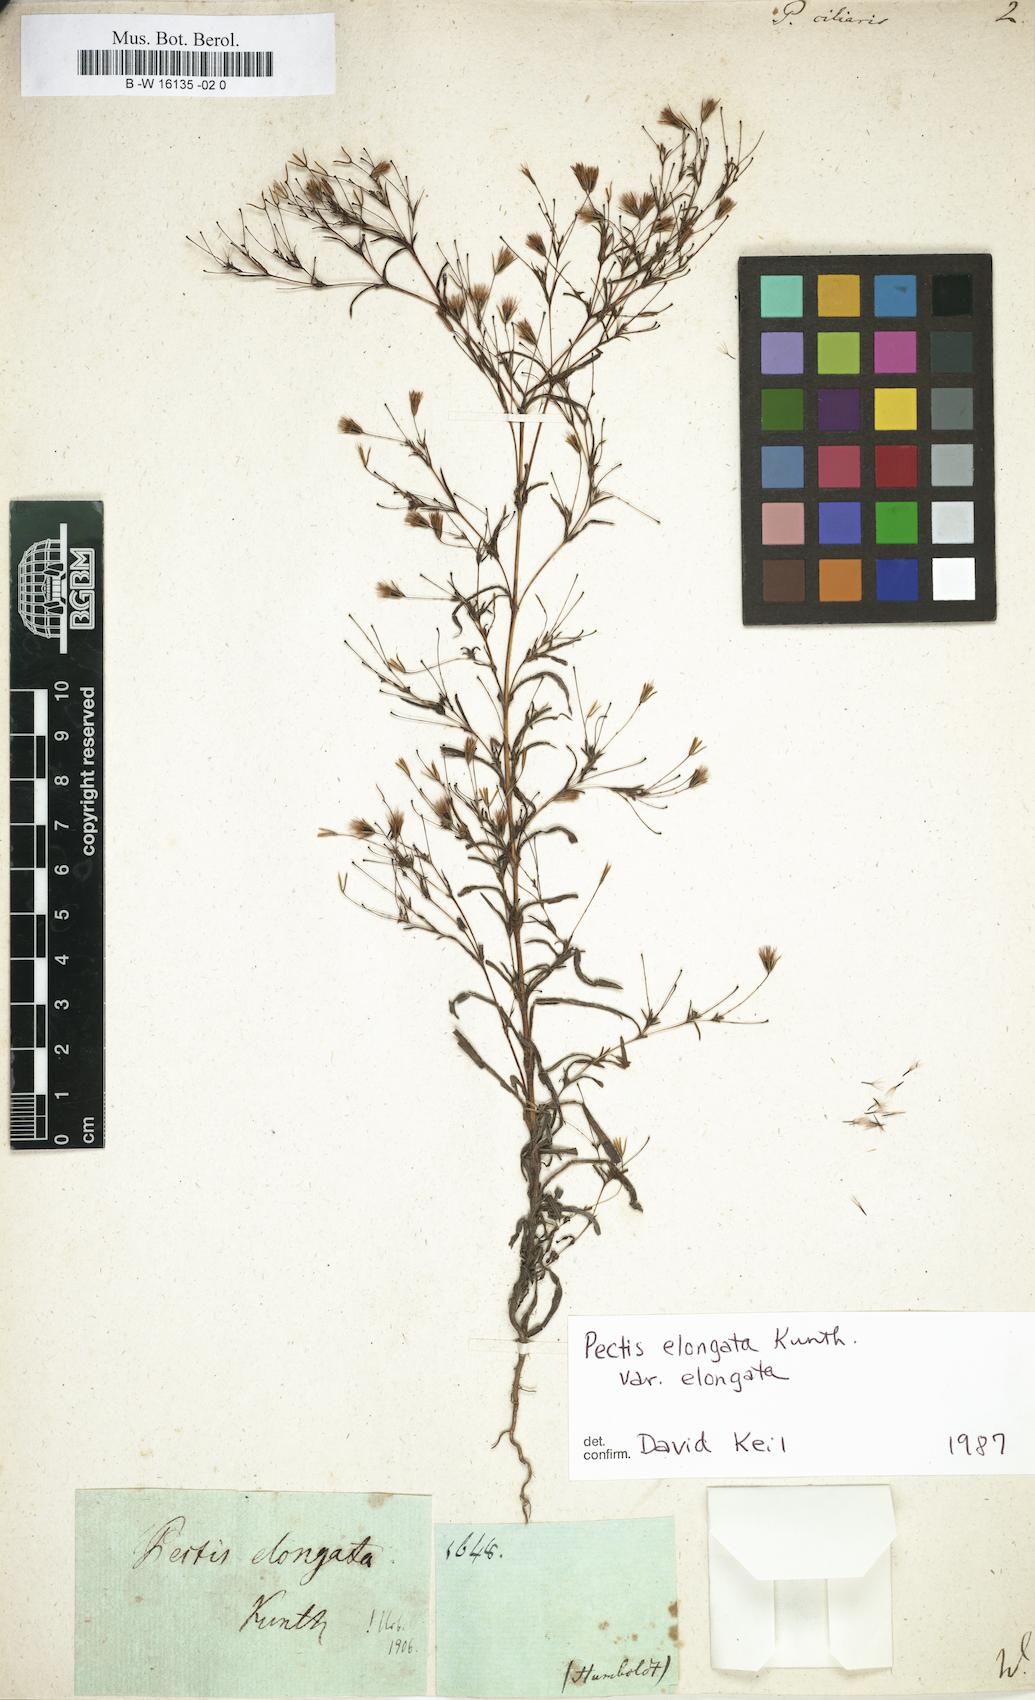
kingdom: Plantae
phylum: Tracheophyta
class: Magnoliopsida
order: Asterales
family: Asteraceae
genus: Pectis
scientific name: Pectis ciliaris
